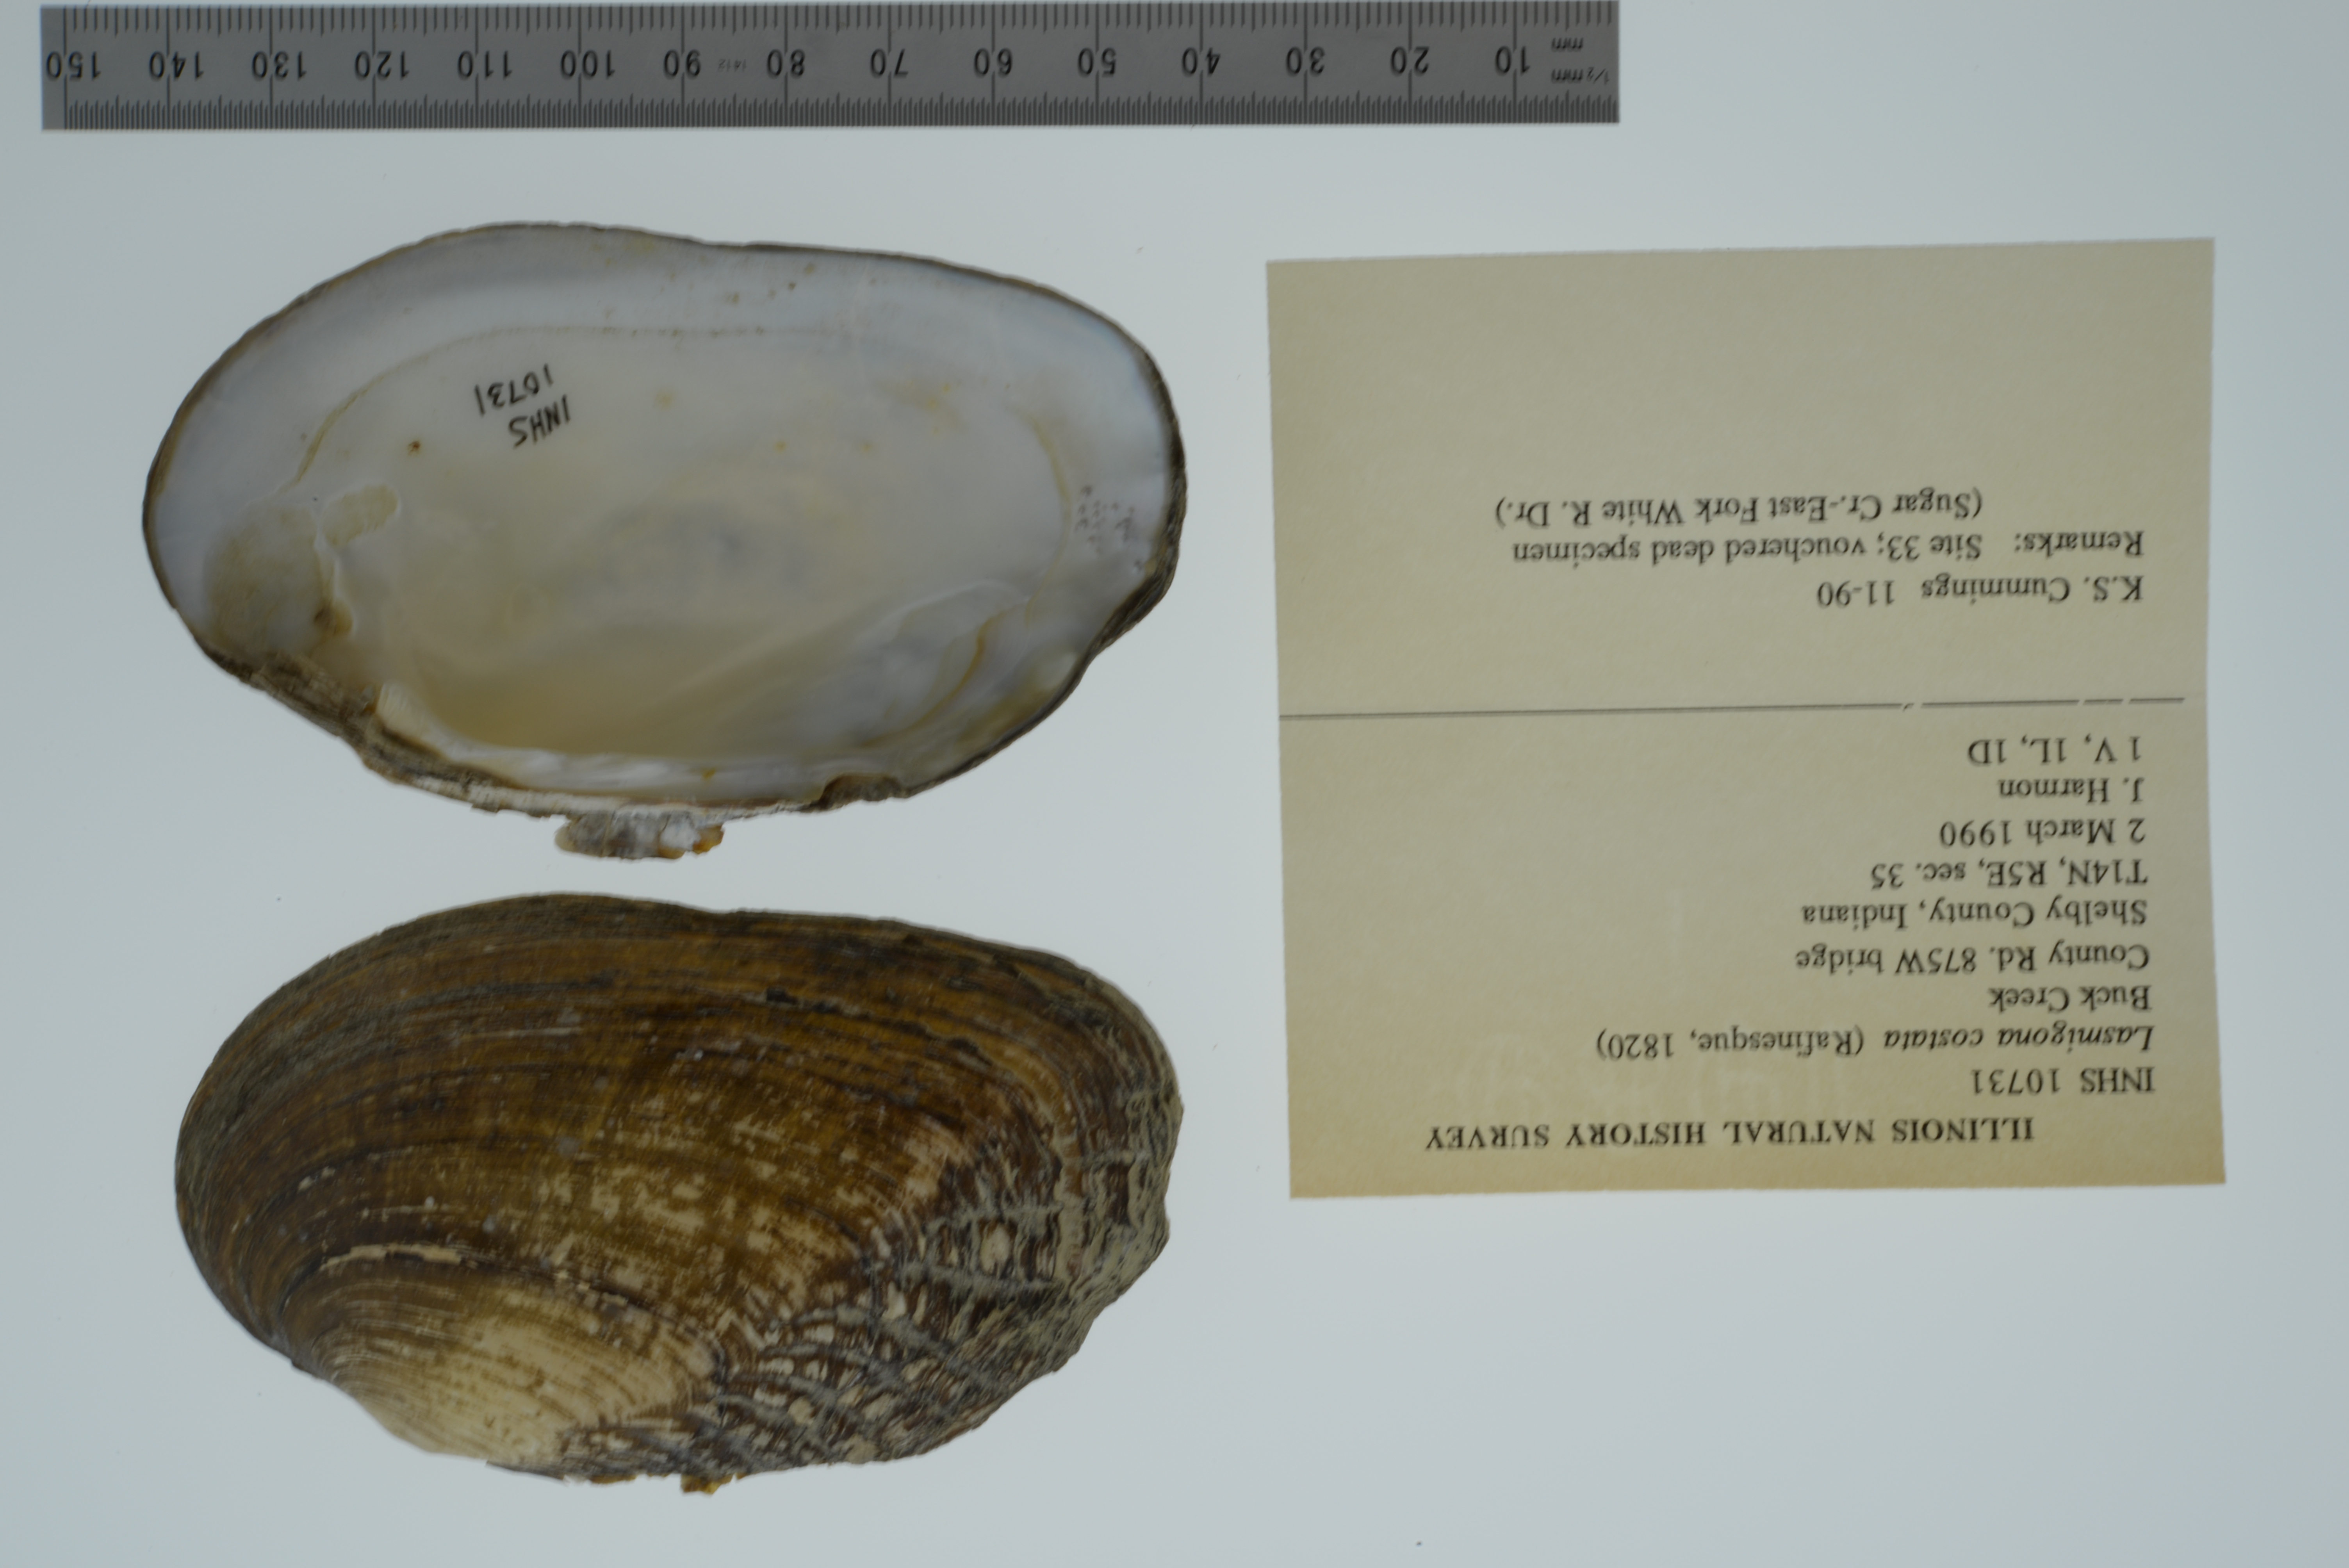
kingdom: Animalia
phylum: Mollusca
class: Bivalvia
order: Unionida
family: Unionidae
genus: Lasmigona
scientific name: Lasmigona costata
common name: Flutedshell
